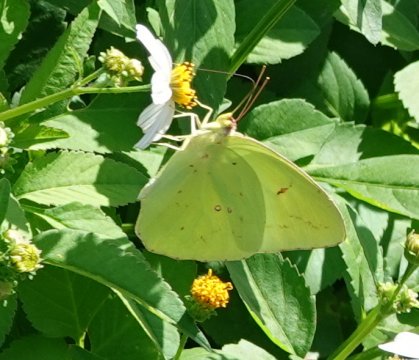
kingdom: Animalia
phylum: Arthropoda
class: Insecta
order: Lepidoptera
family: Pieridae
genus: Phoebis
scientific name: Phoebis sennae
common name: Cloudless Sulphur
